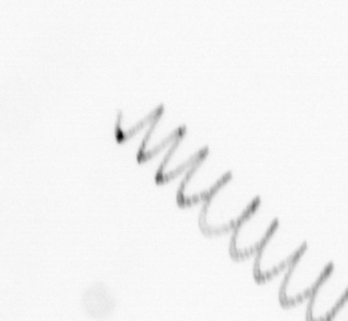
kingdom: Chromista
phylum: Ochrophyta
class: Bacillariophyceae
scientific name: Bacillariophyceae
